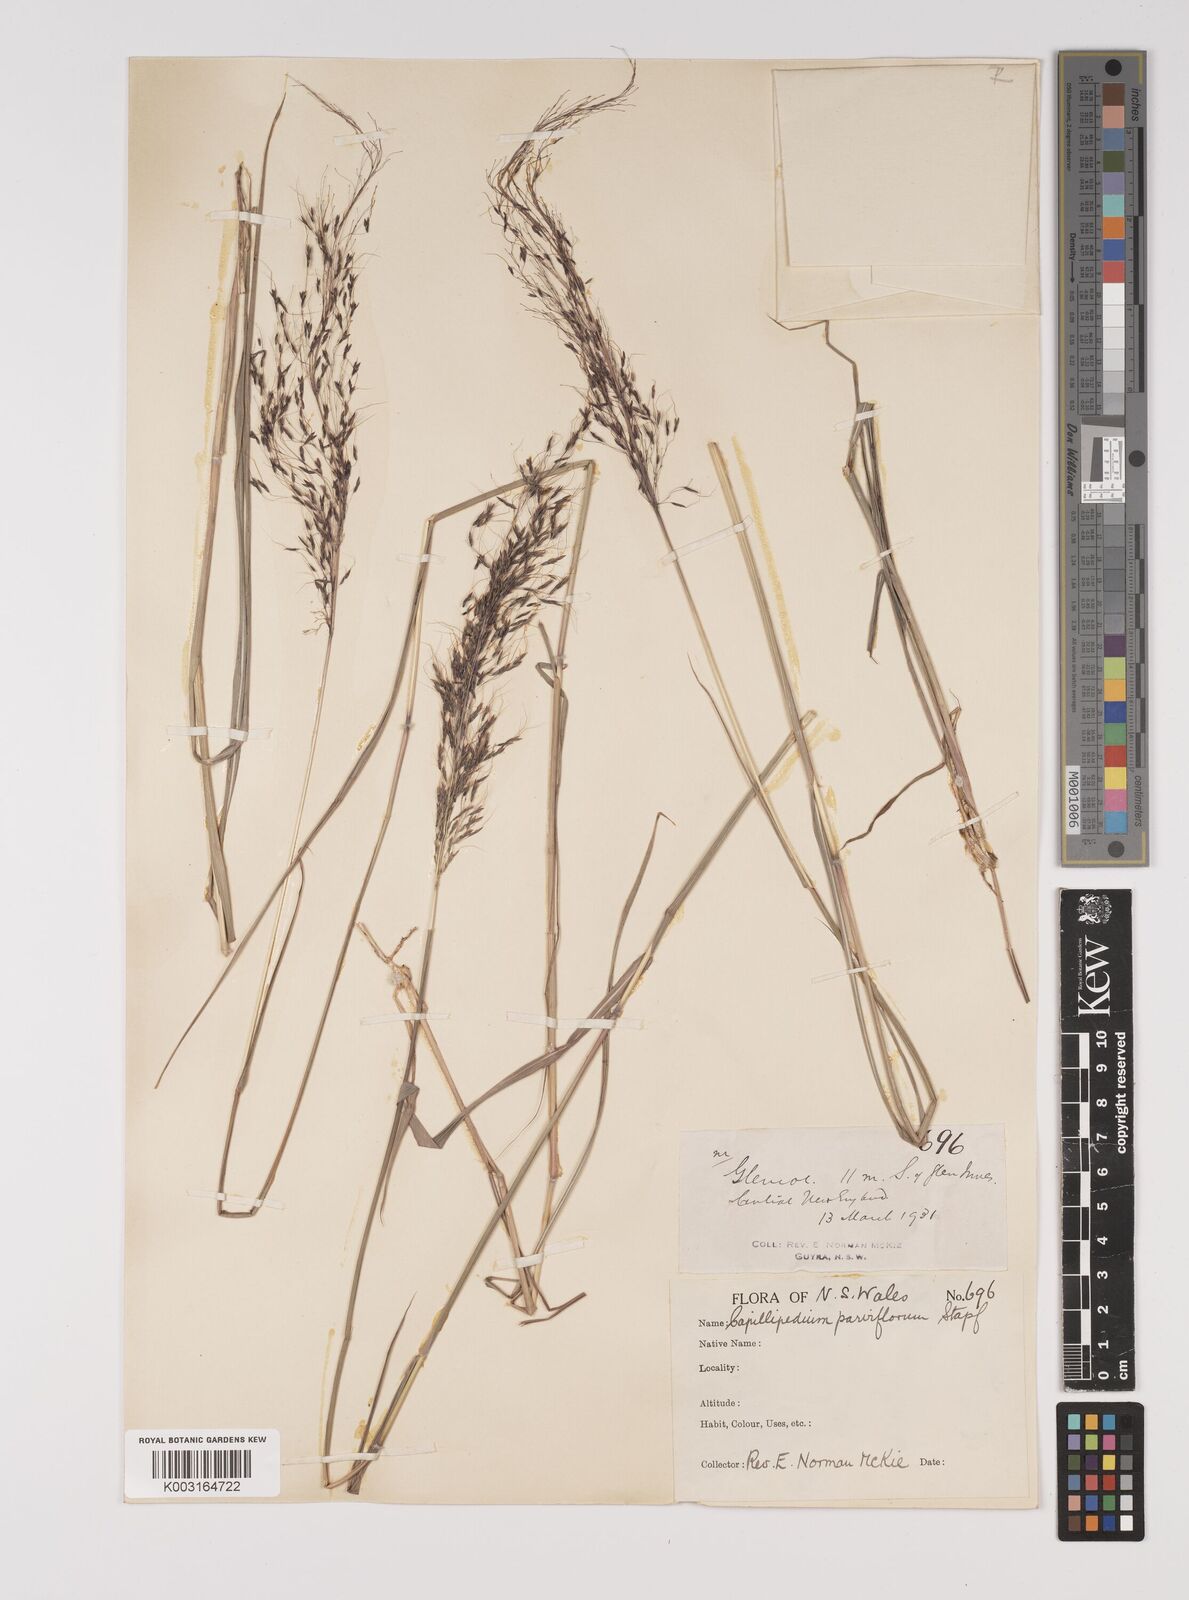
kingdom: Plantae
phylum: Tracheophyta
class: Liliopsida
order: Poales
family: Poaceae
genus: Capillipedium
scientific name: Capillipedium parviflorum
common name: Golden-beard
